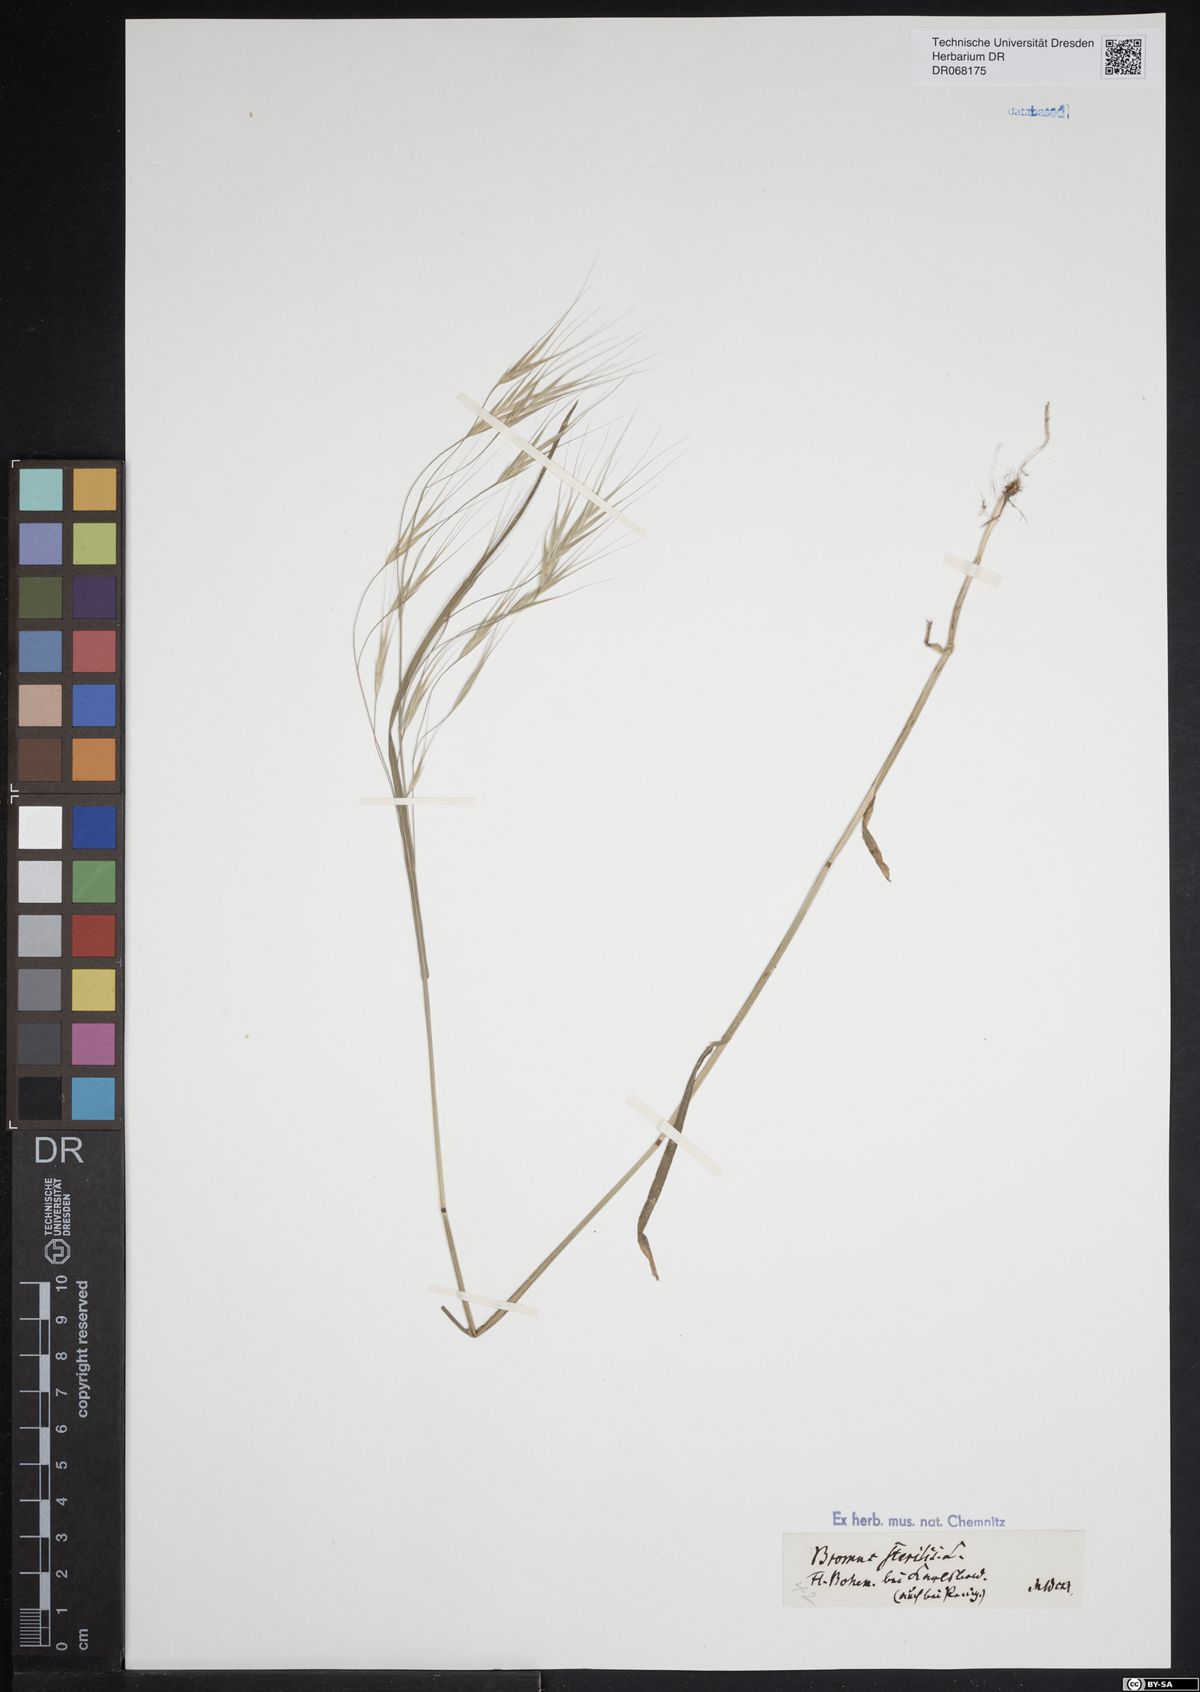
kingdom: Plantae
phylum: Tracheophyta
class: Liliopsida
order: Poales
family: Poaceae
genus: Bromus
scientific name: Bromus sterilis
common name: Poverty brome
